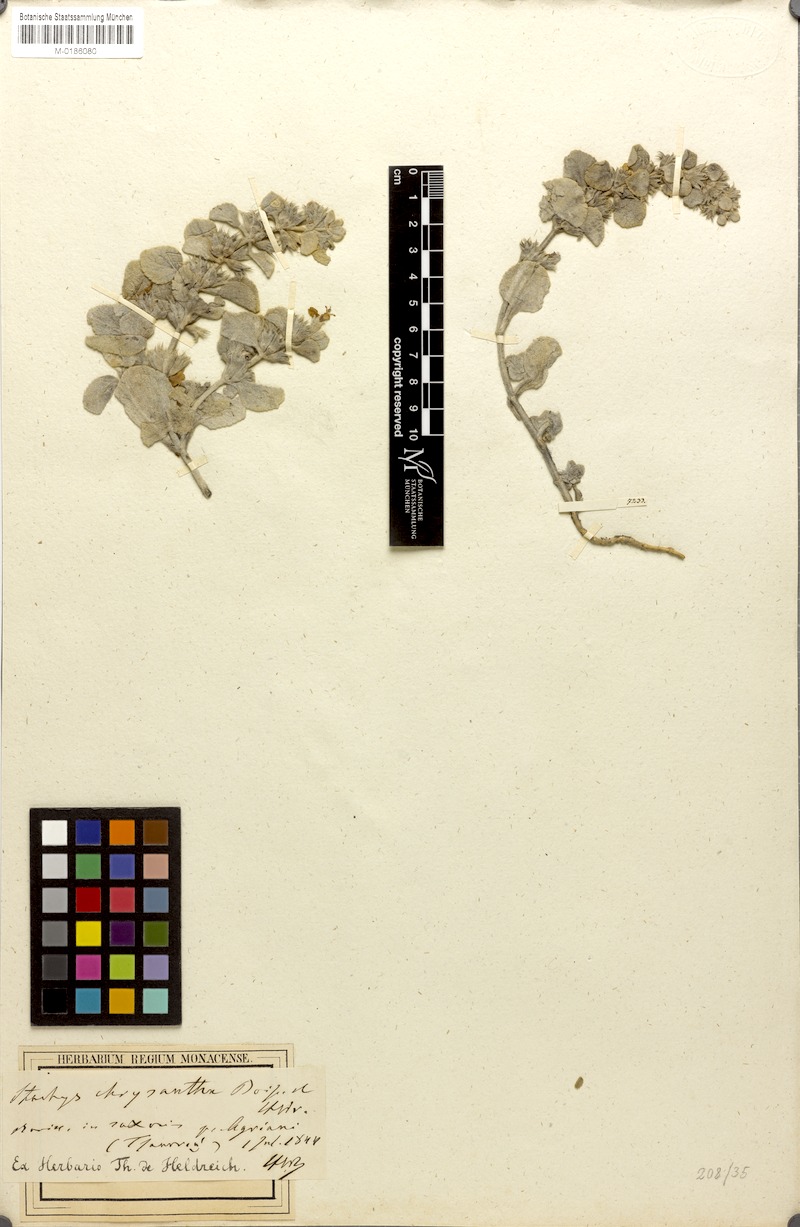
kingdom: Plantae
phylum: Tracheophyta
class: Magnoliopsida
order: Lamiales
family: Lamiaceae
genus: Stachys
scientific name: Stachys chrysantha
